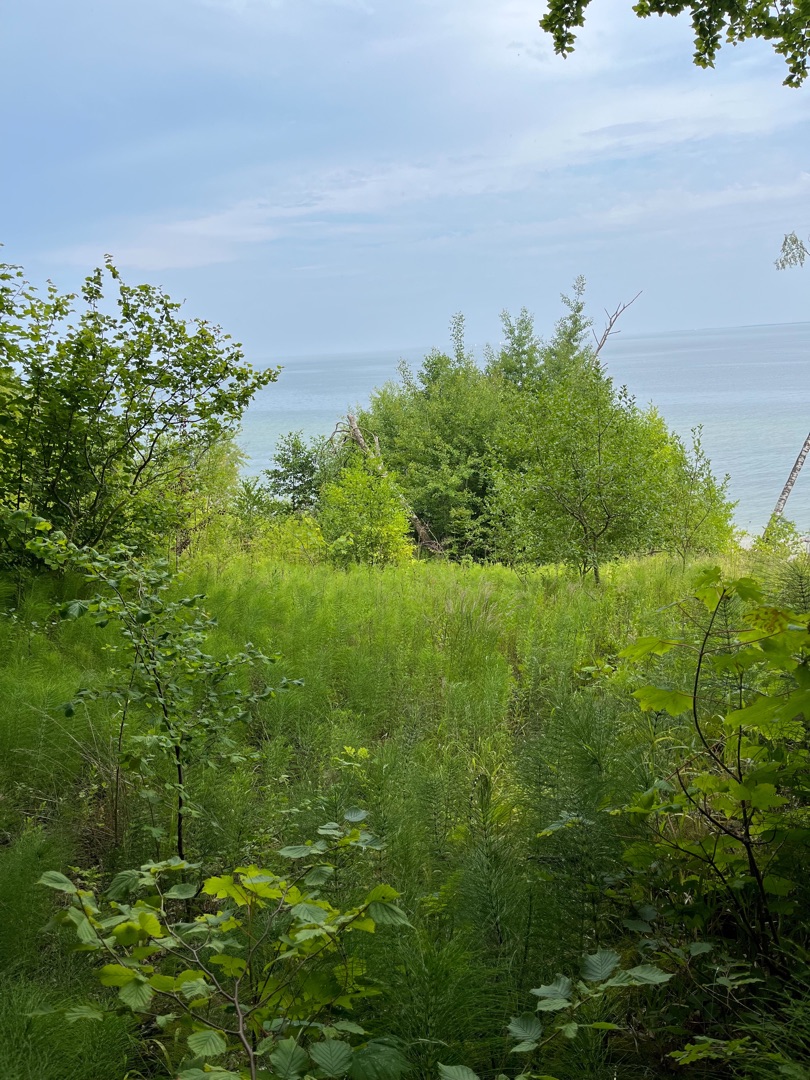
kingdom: Plantae
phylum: Tracheophyta
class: Polypodiopsida
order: Equisetales
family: Equisetaceae
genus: Equisetum
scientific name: Equisetum telmateia
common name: Elfenbens-padderok
